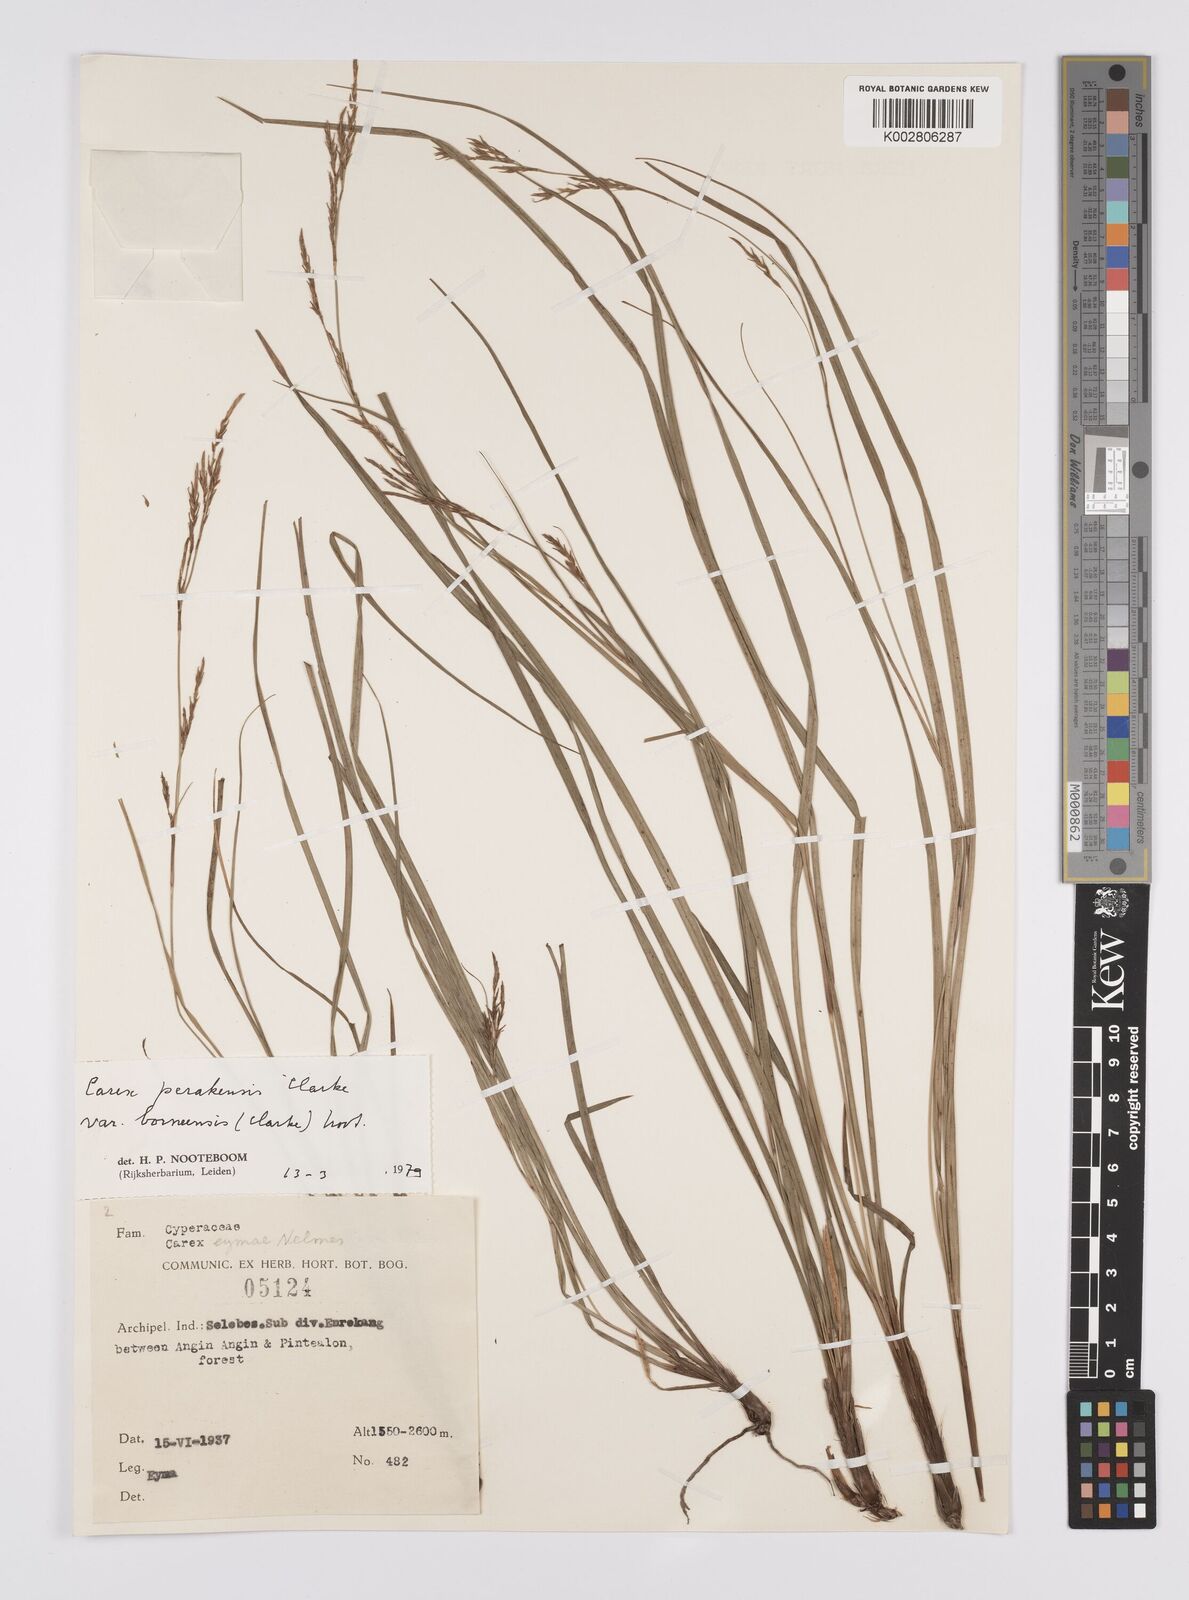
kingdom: Plantae
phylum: Tracheophyta
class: Liliopsida
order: Poales
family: Cyperaceae
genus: Carex
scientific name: Carex perakensis
